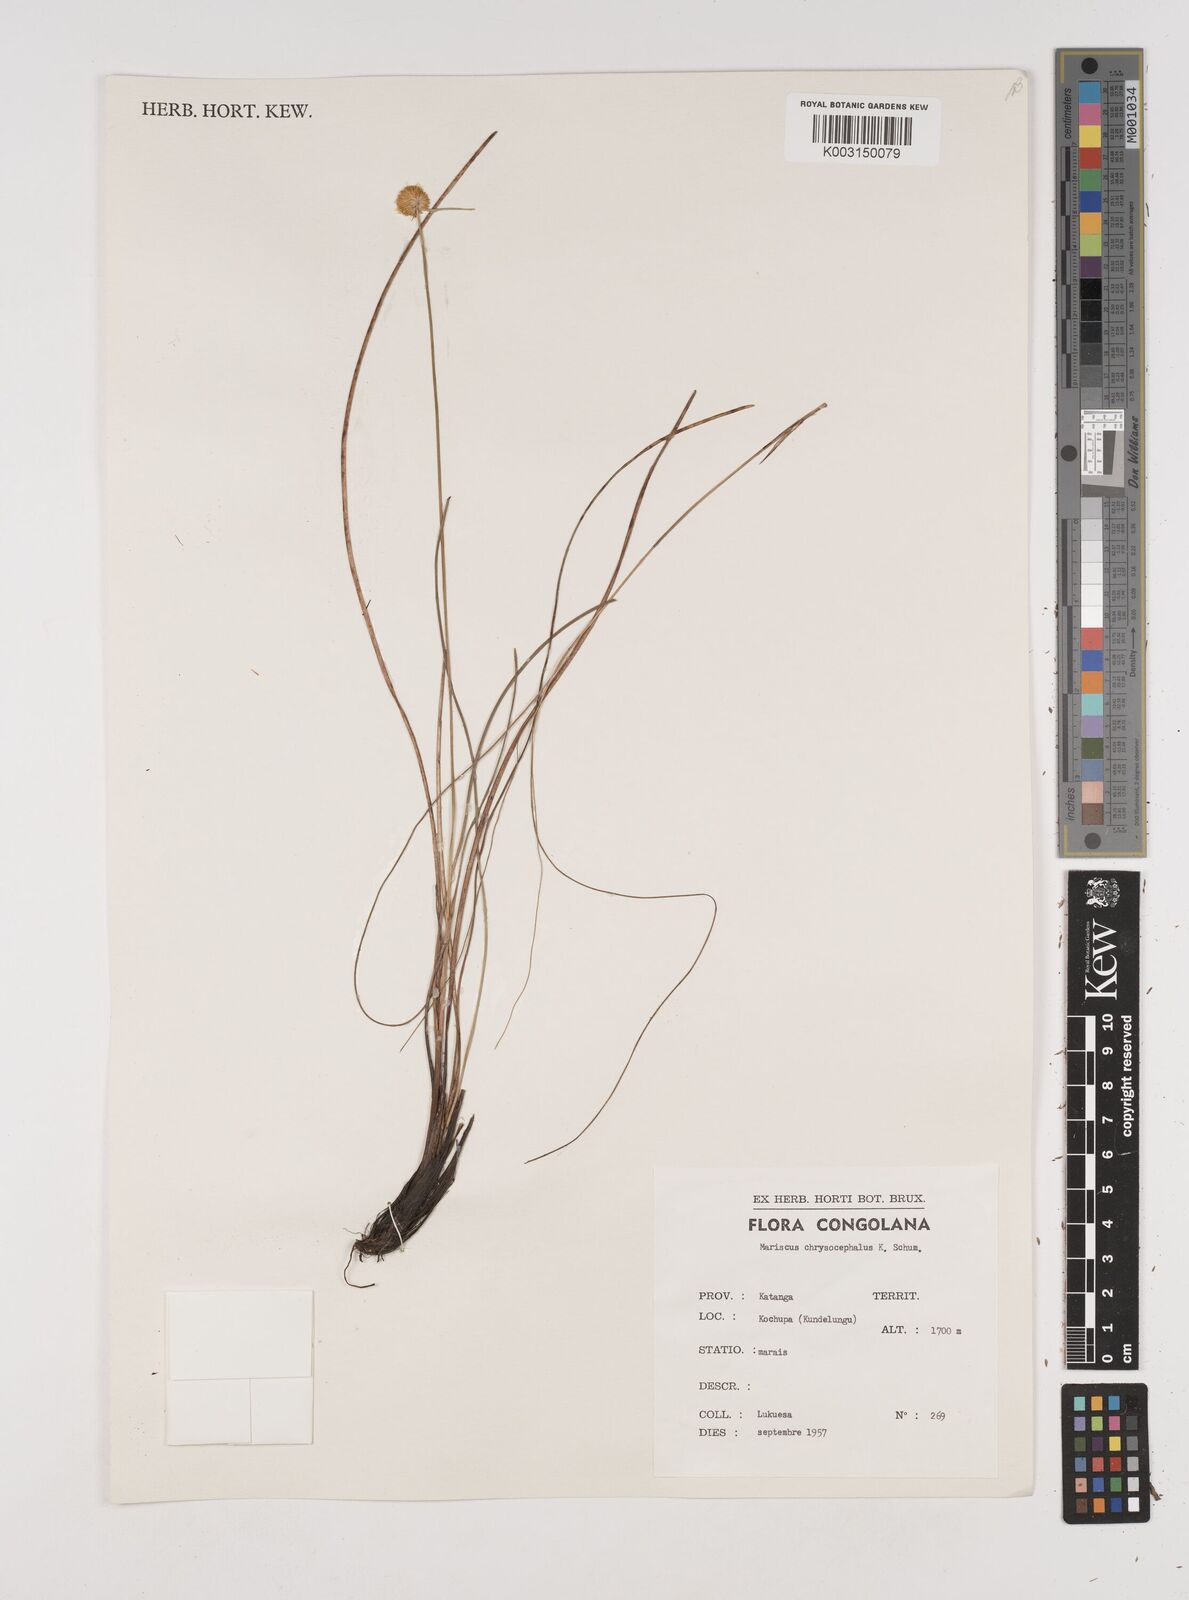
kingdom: Plantae
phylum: Tracheophyta
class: Liliopsida
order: Poales
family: Cyperaceae
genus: Cyperus
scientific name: Cyperus chrysocephalus
